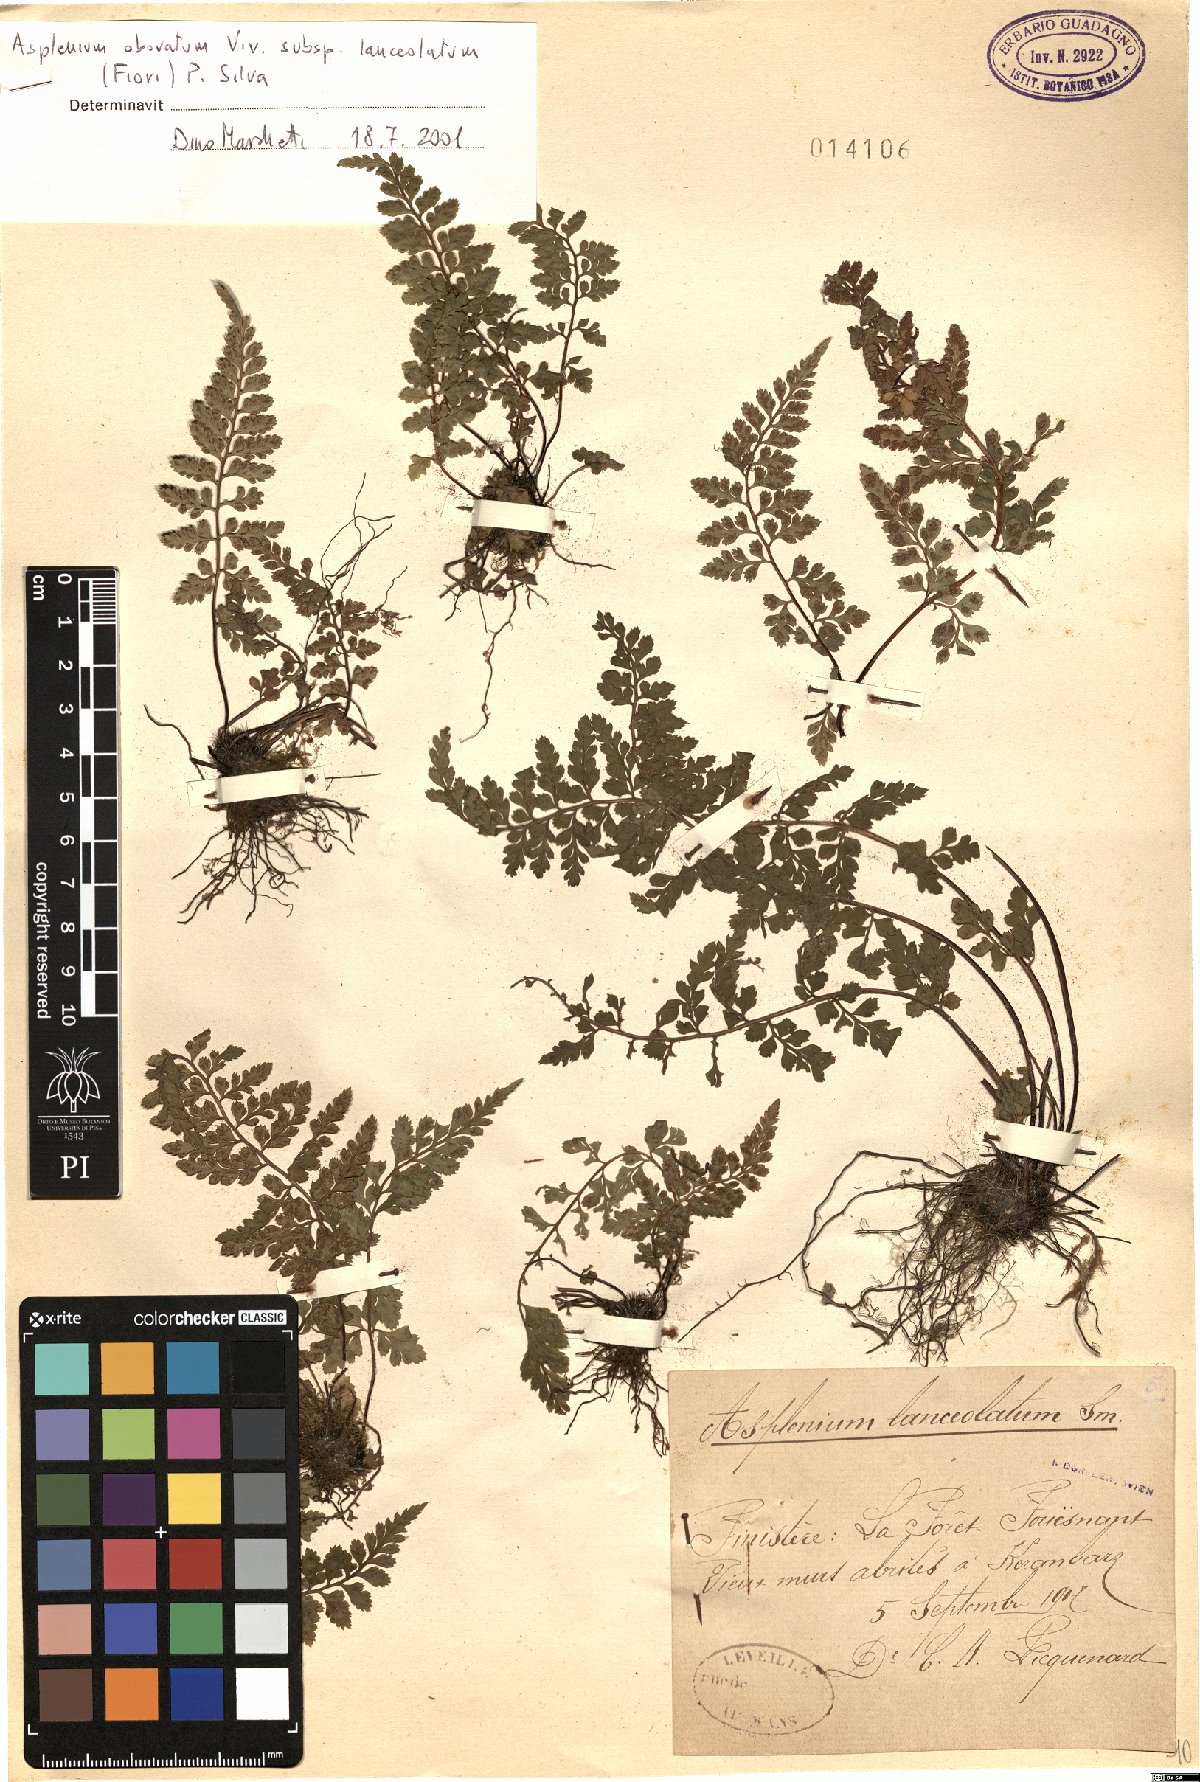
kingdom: Plantae
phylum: Tracheophyta
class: Polypodiopsida
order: Polypodiales
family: Aspleniaceae
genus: Asplenium
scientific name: Asplenium obovatum
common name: Lanceolate spleenwort
